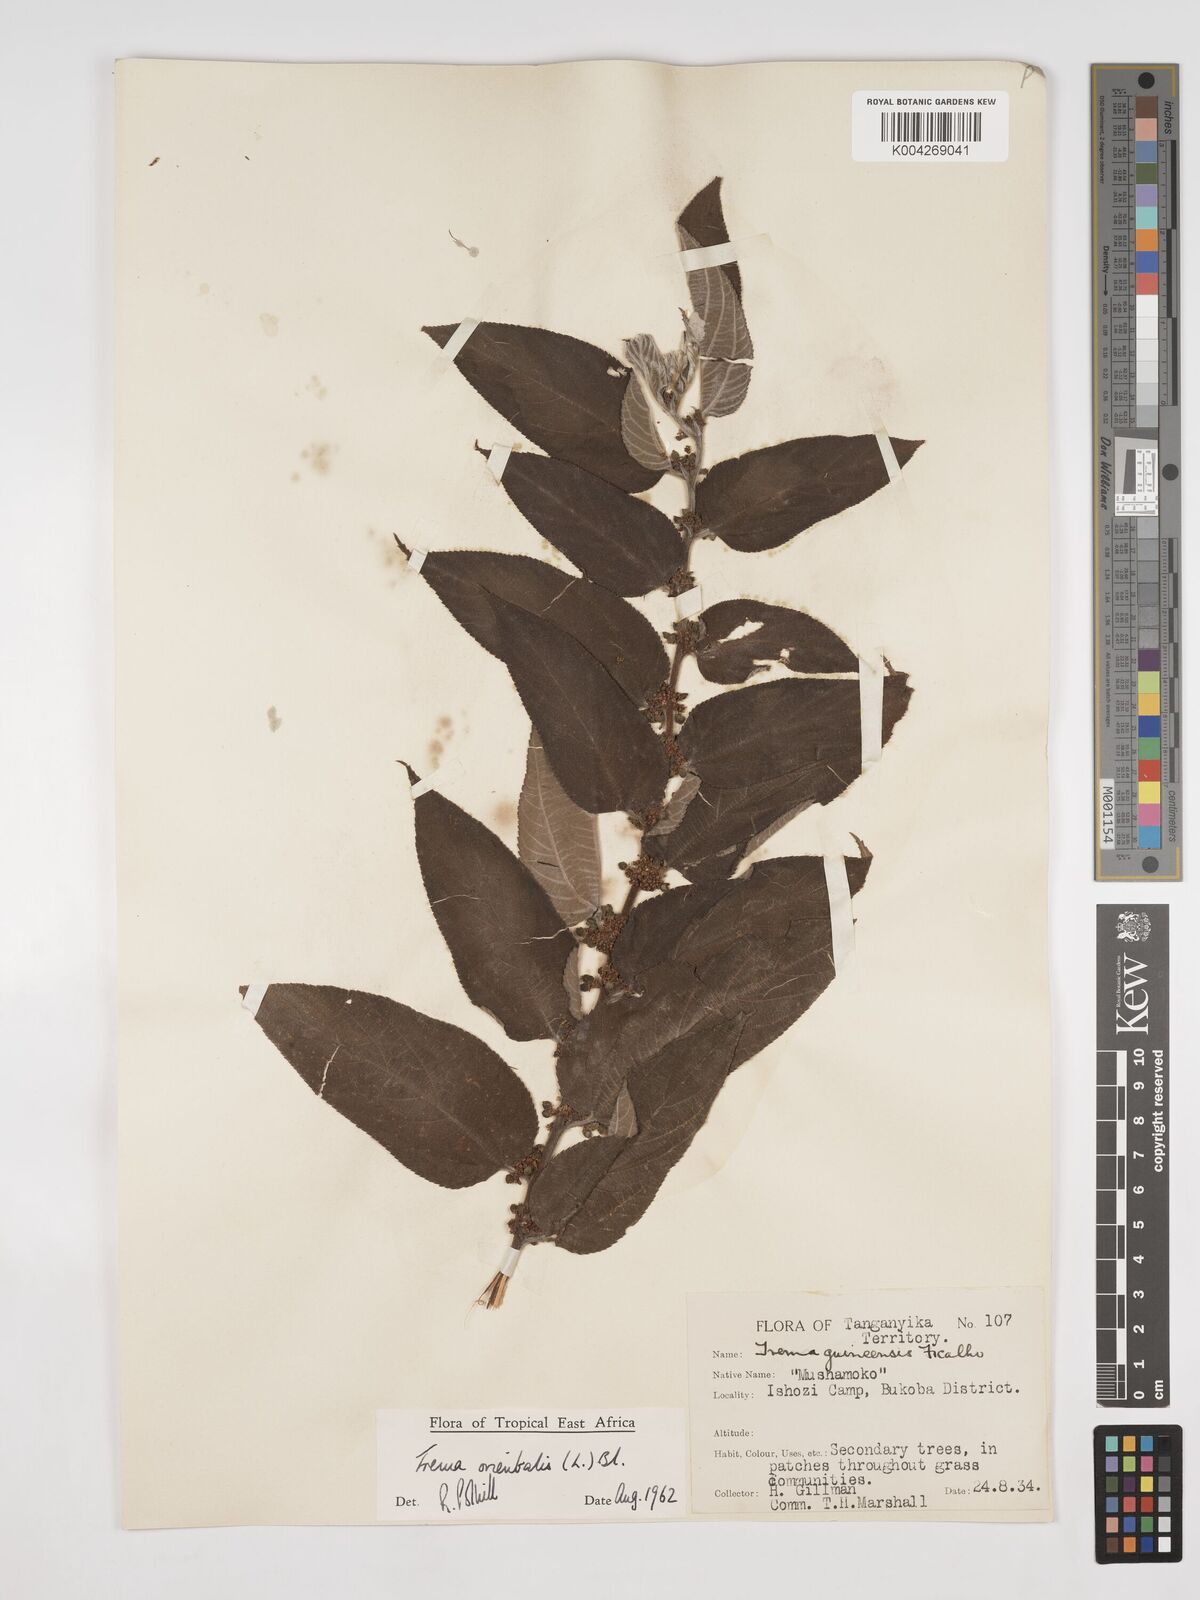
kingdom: Plantae
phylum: Tracheophyta
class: Magnoliopsida
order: Rosales
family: Cannabaceae
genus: Trema
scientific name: Trema orientale
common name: Indian charcoal tree
